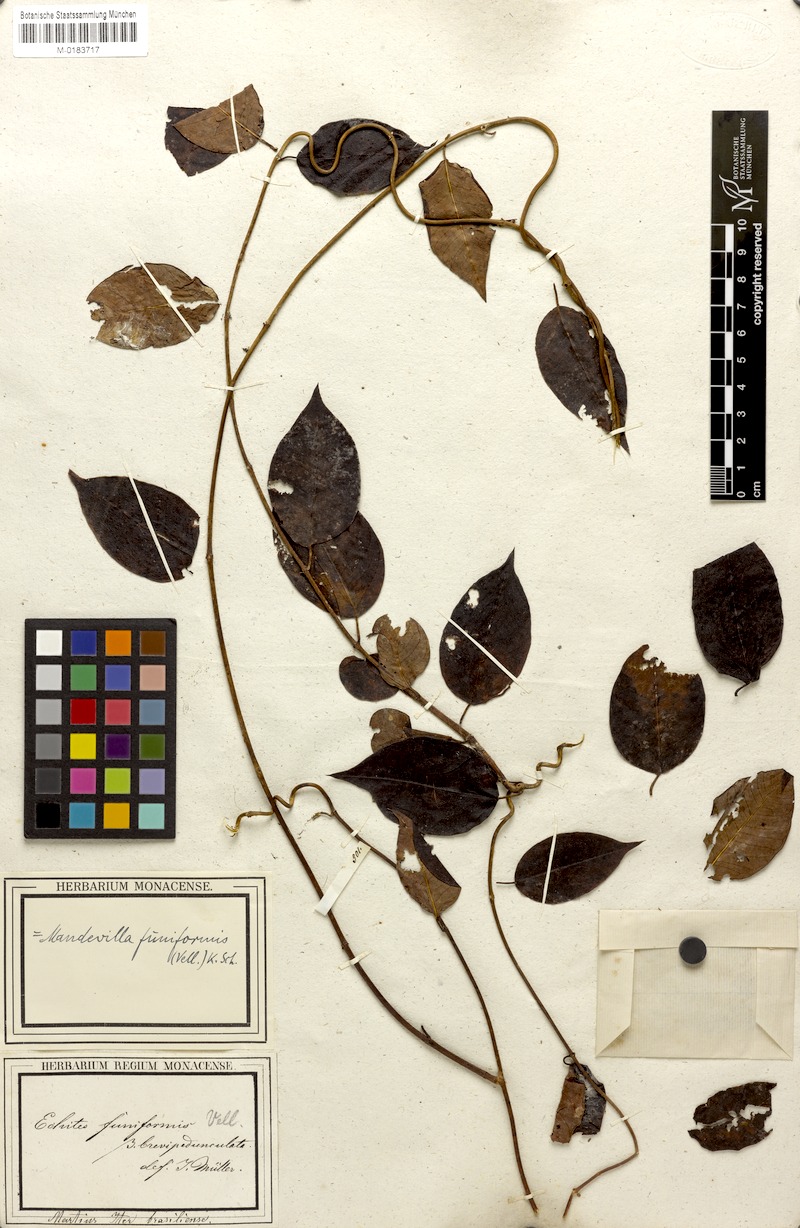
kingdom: Plantae
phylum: Tracheophyta
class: Magnoliopsida
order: Gentianales
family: Apocynaceae
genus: Mandevilla
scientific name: Mandevilla funiformis
